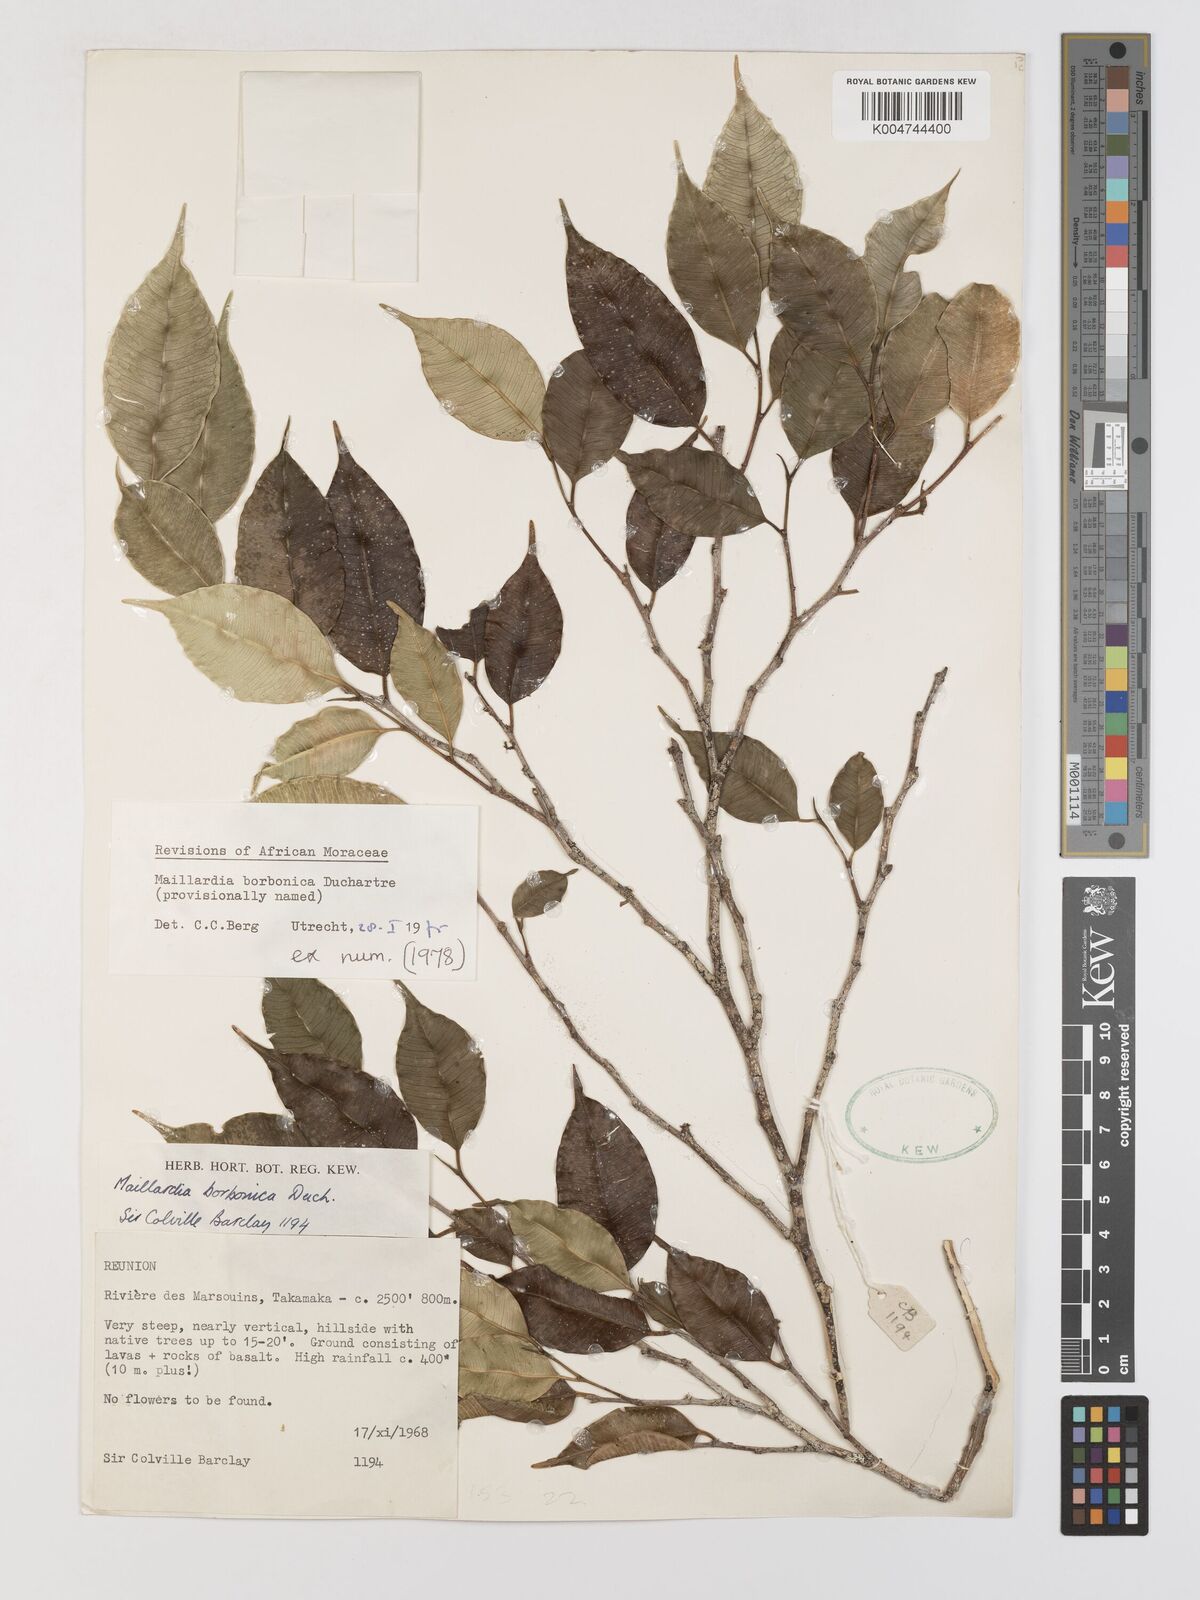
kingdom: Plantae
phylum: Tracheophyta
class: Magnoliopsida
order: Rosales
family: Moraceae
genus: Maillardia
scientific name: Maillardia borbonica
